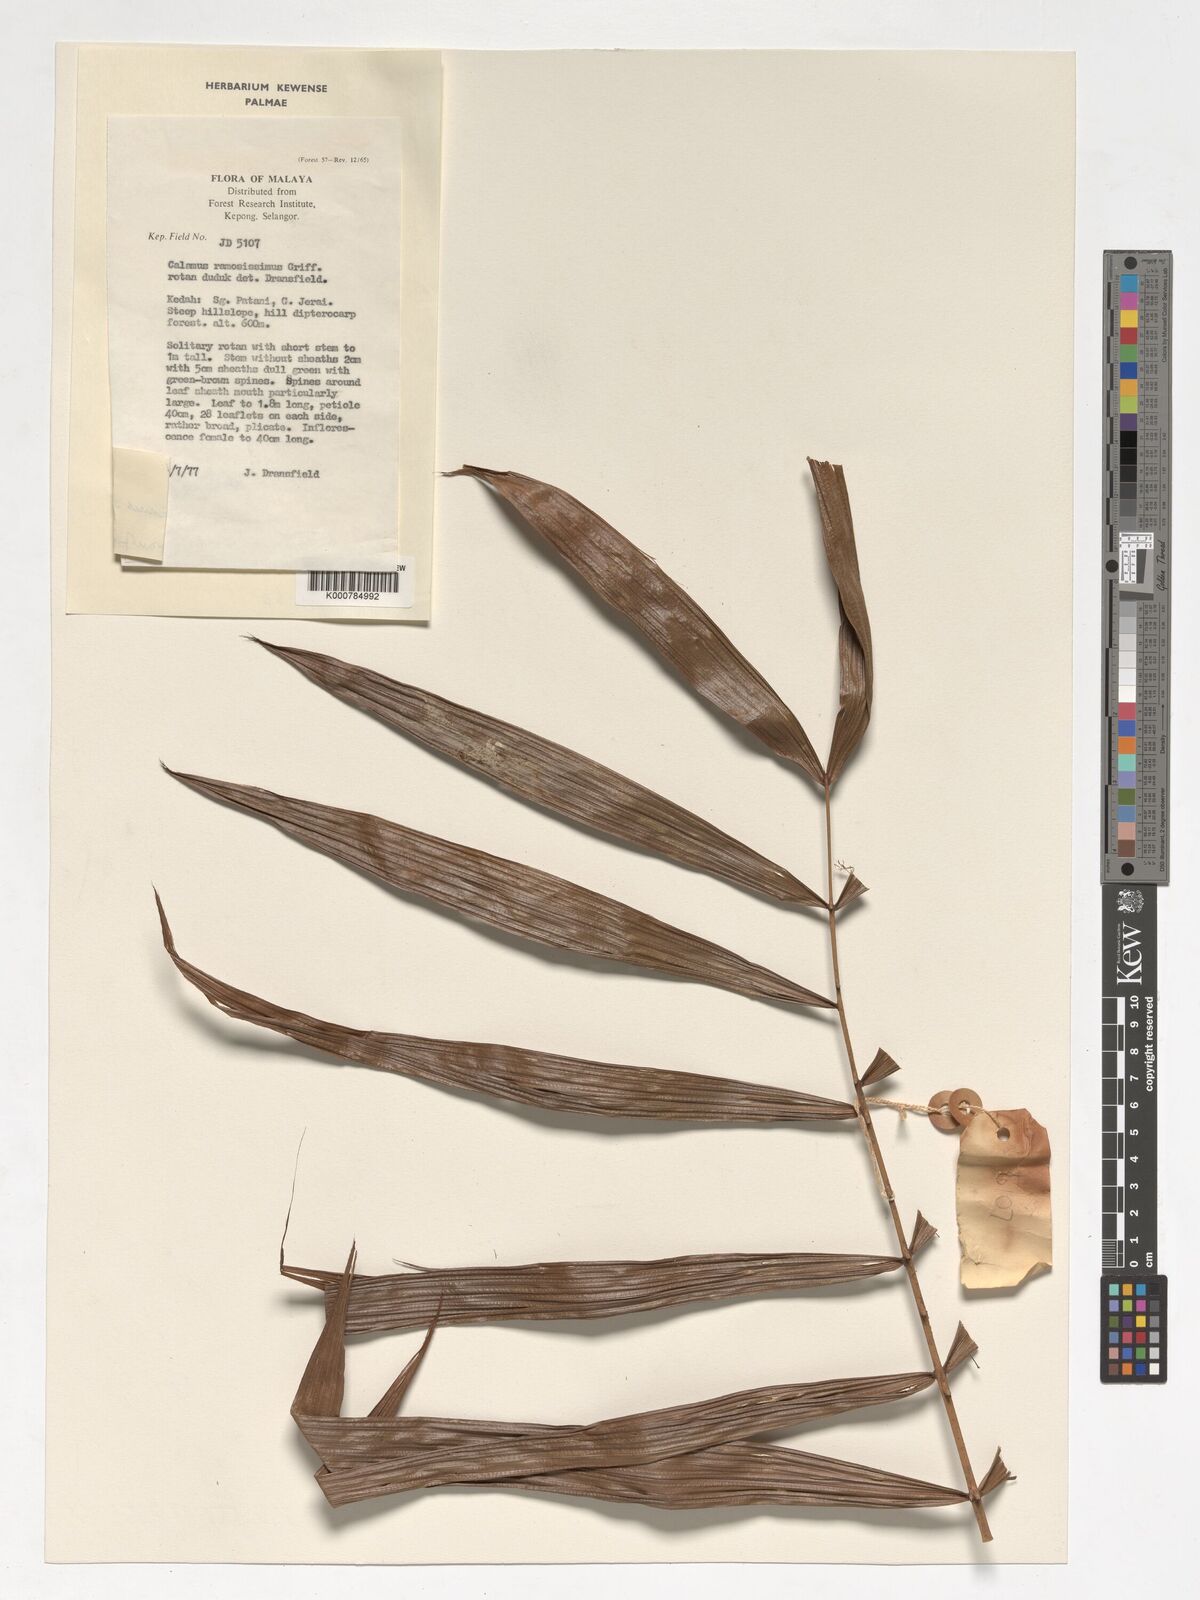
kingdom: Plantae
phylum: Tracheophyta
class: Liliopsida
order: Arecales
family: Arecaceae
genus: Calamus
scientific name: Calamus sedens
